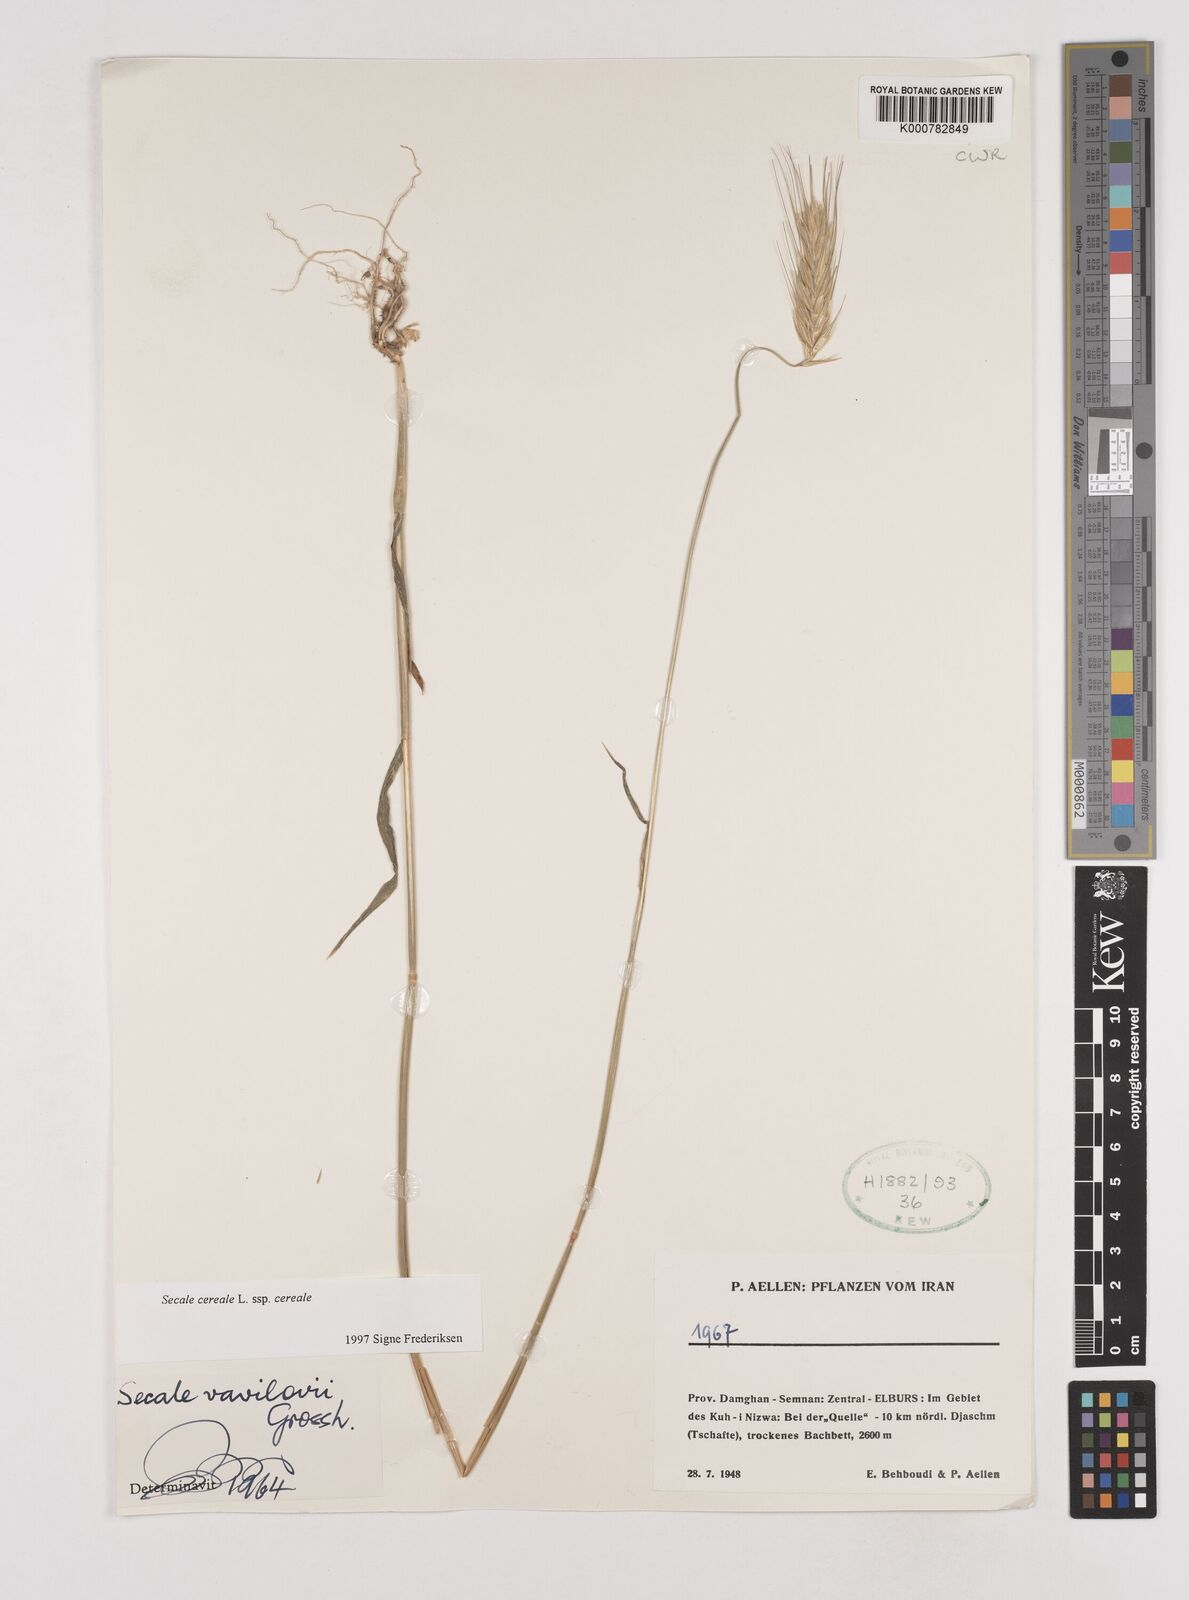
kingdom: Plantae
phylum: Tracheophyta
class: Liliopsida
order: Poales
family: Poaceae
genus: Secale
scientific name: Secale cereale
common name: Rye
